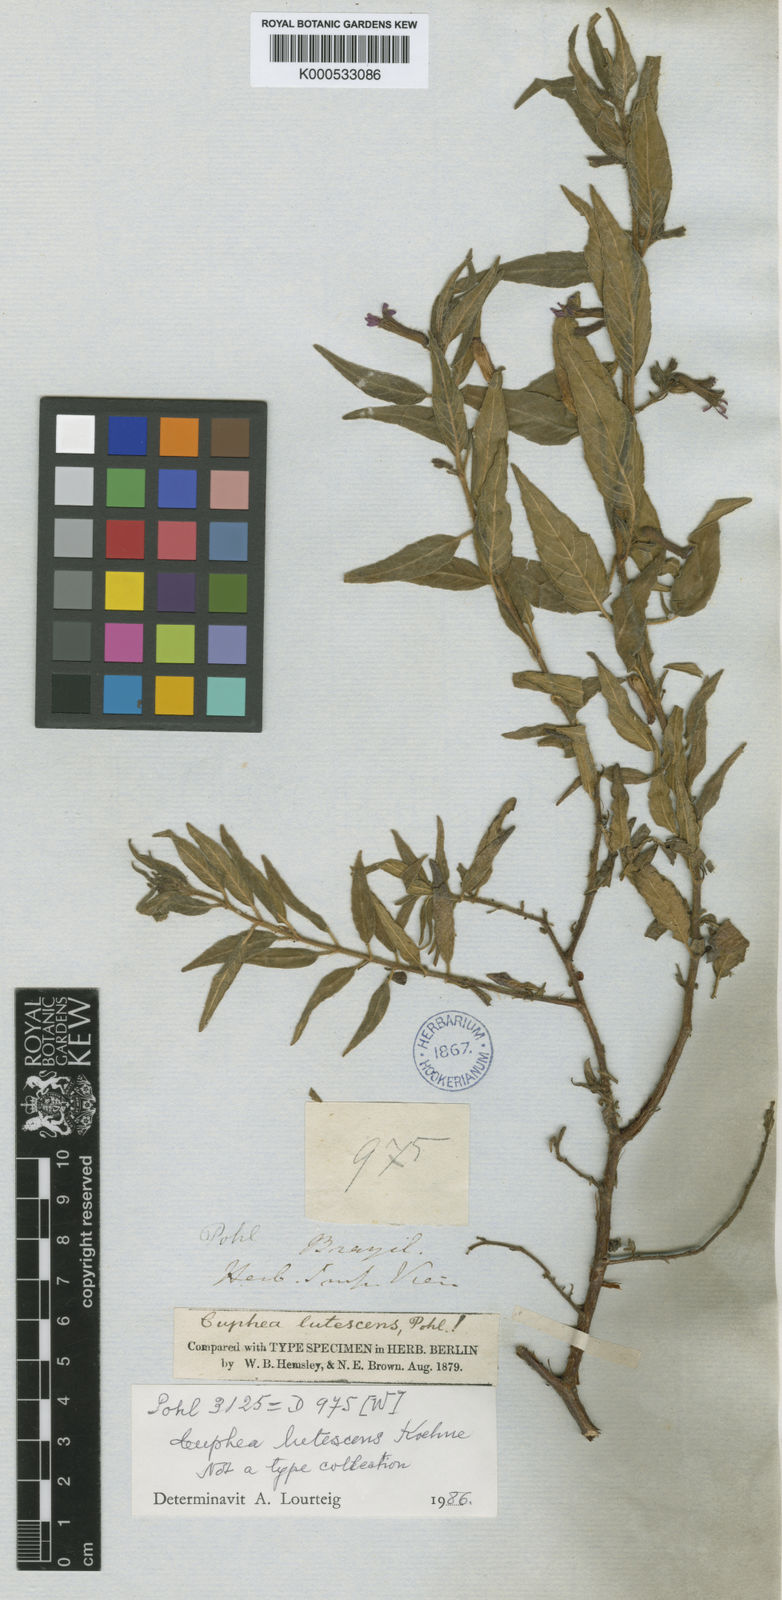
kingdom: Plantae
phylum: Tracheophyta
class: Magnoliopsida
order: Myrtales
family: Lythraceae
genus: Cuphea
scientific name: Cuphea lutescens
